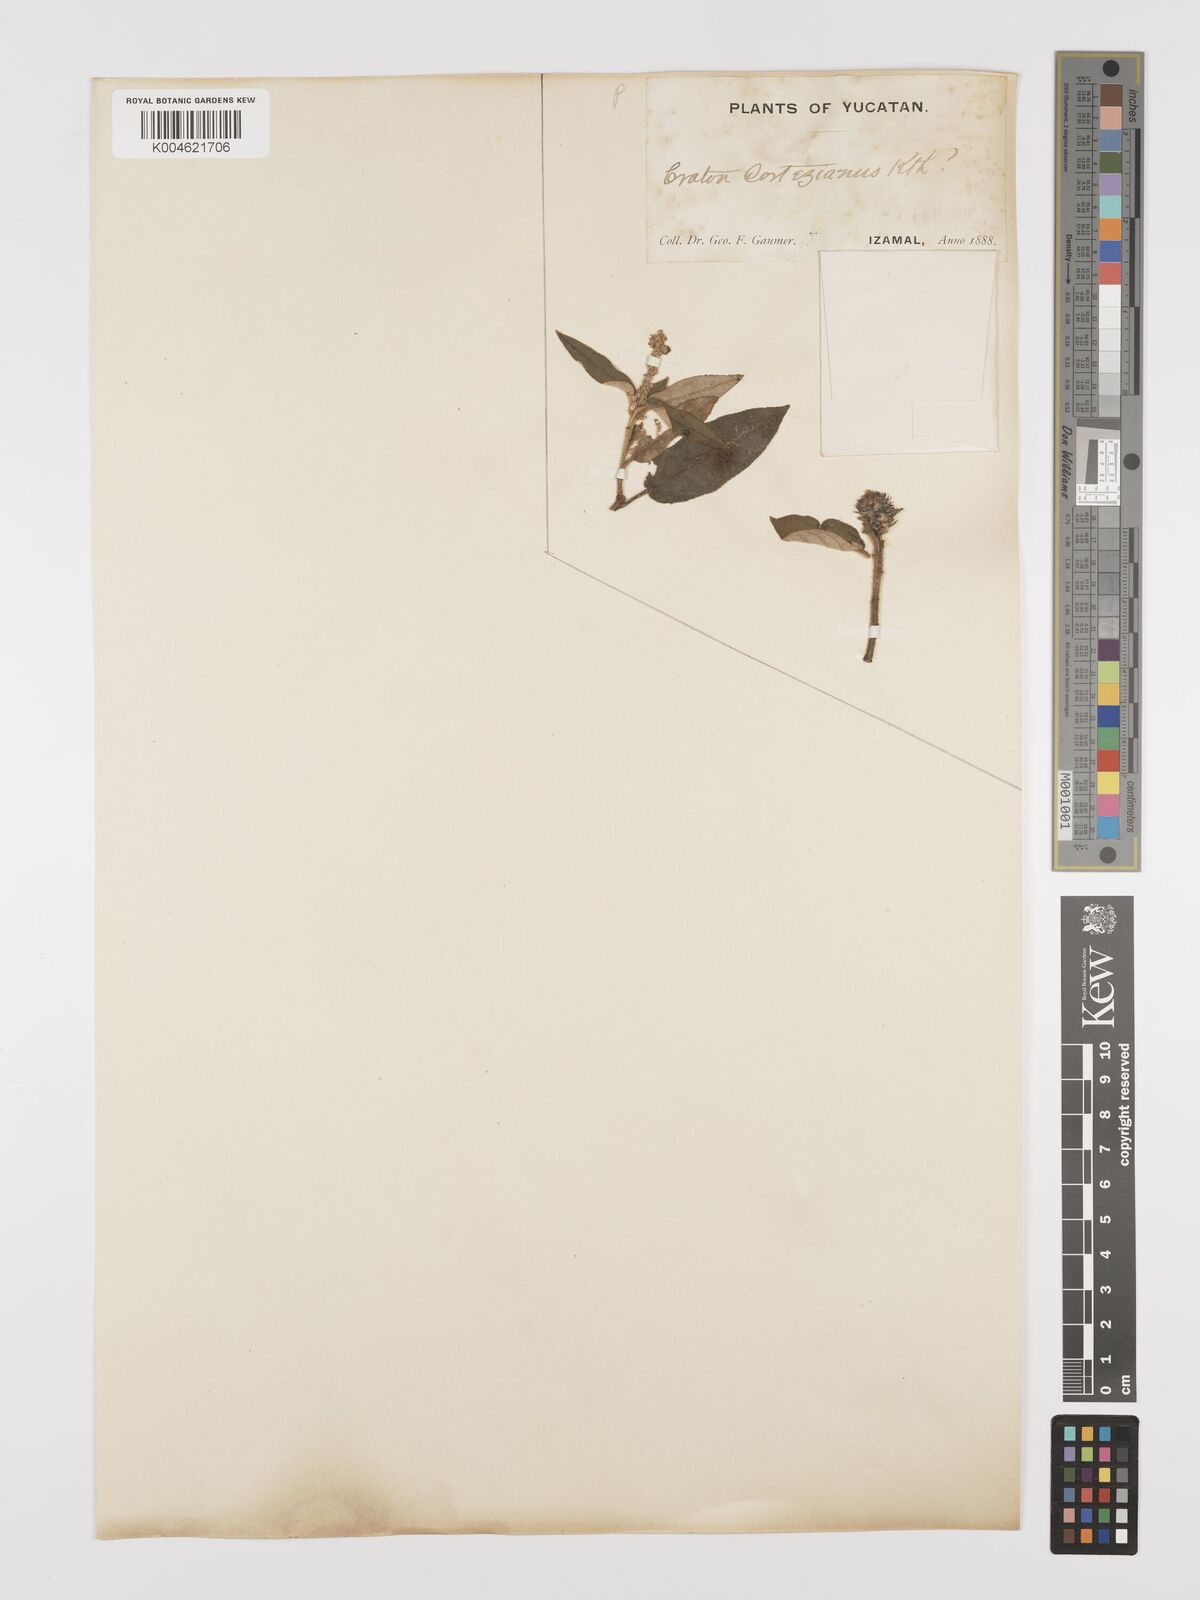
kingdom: Plantae
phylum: Tracheophyta
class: Magnoliopsida
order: Malpighiales
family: Euphorbiaceae
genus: Croton
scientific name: Croton cortesianus
